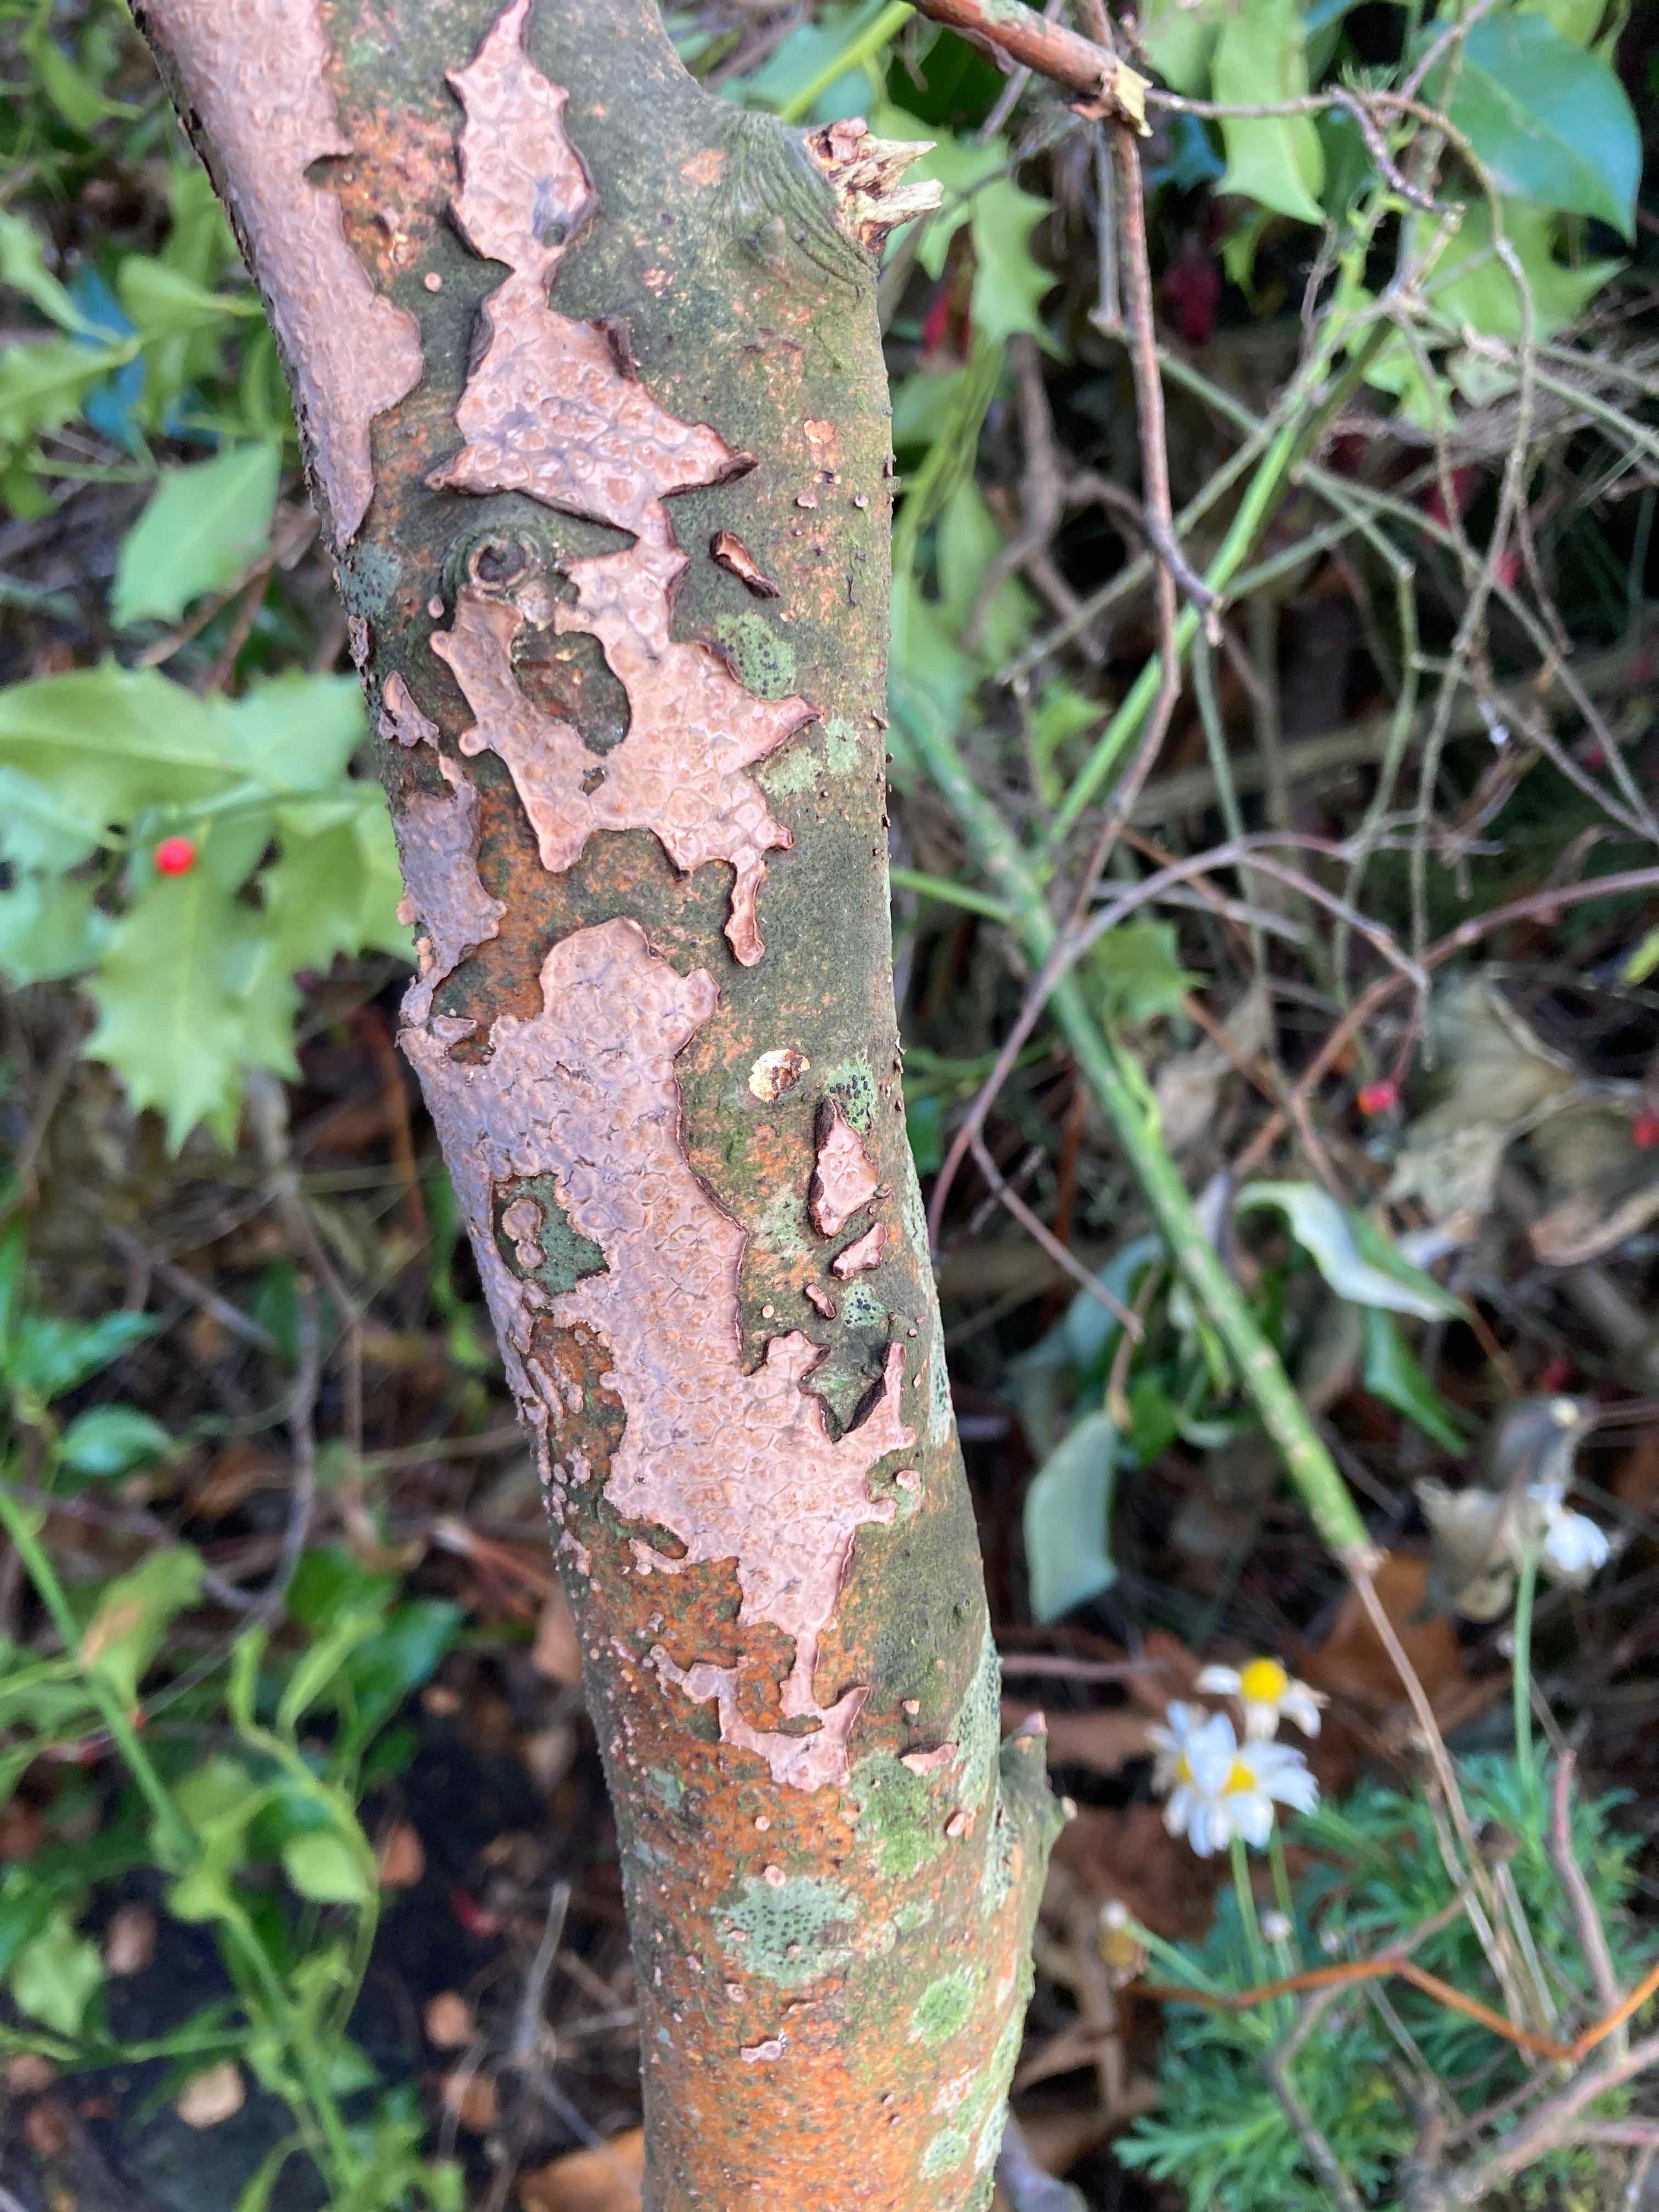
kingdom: Fungi
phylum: Basidiomycota
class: Agaricomycetes
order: Russulales
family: Peniophoraceae
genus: Peniophora
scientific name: Peniophora quercina
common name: ege-voksskind
